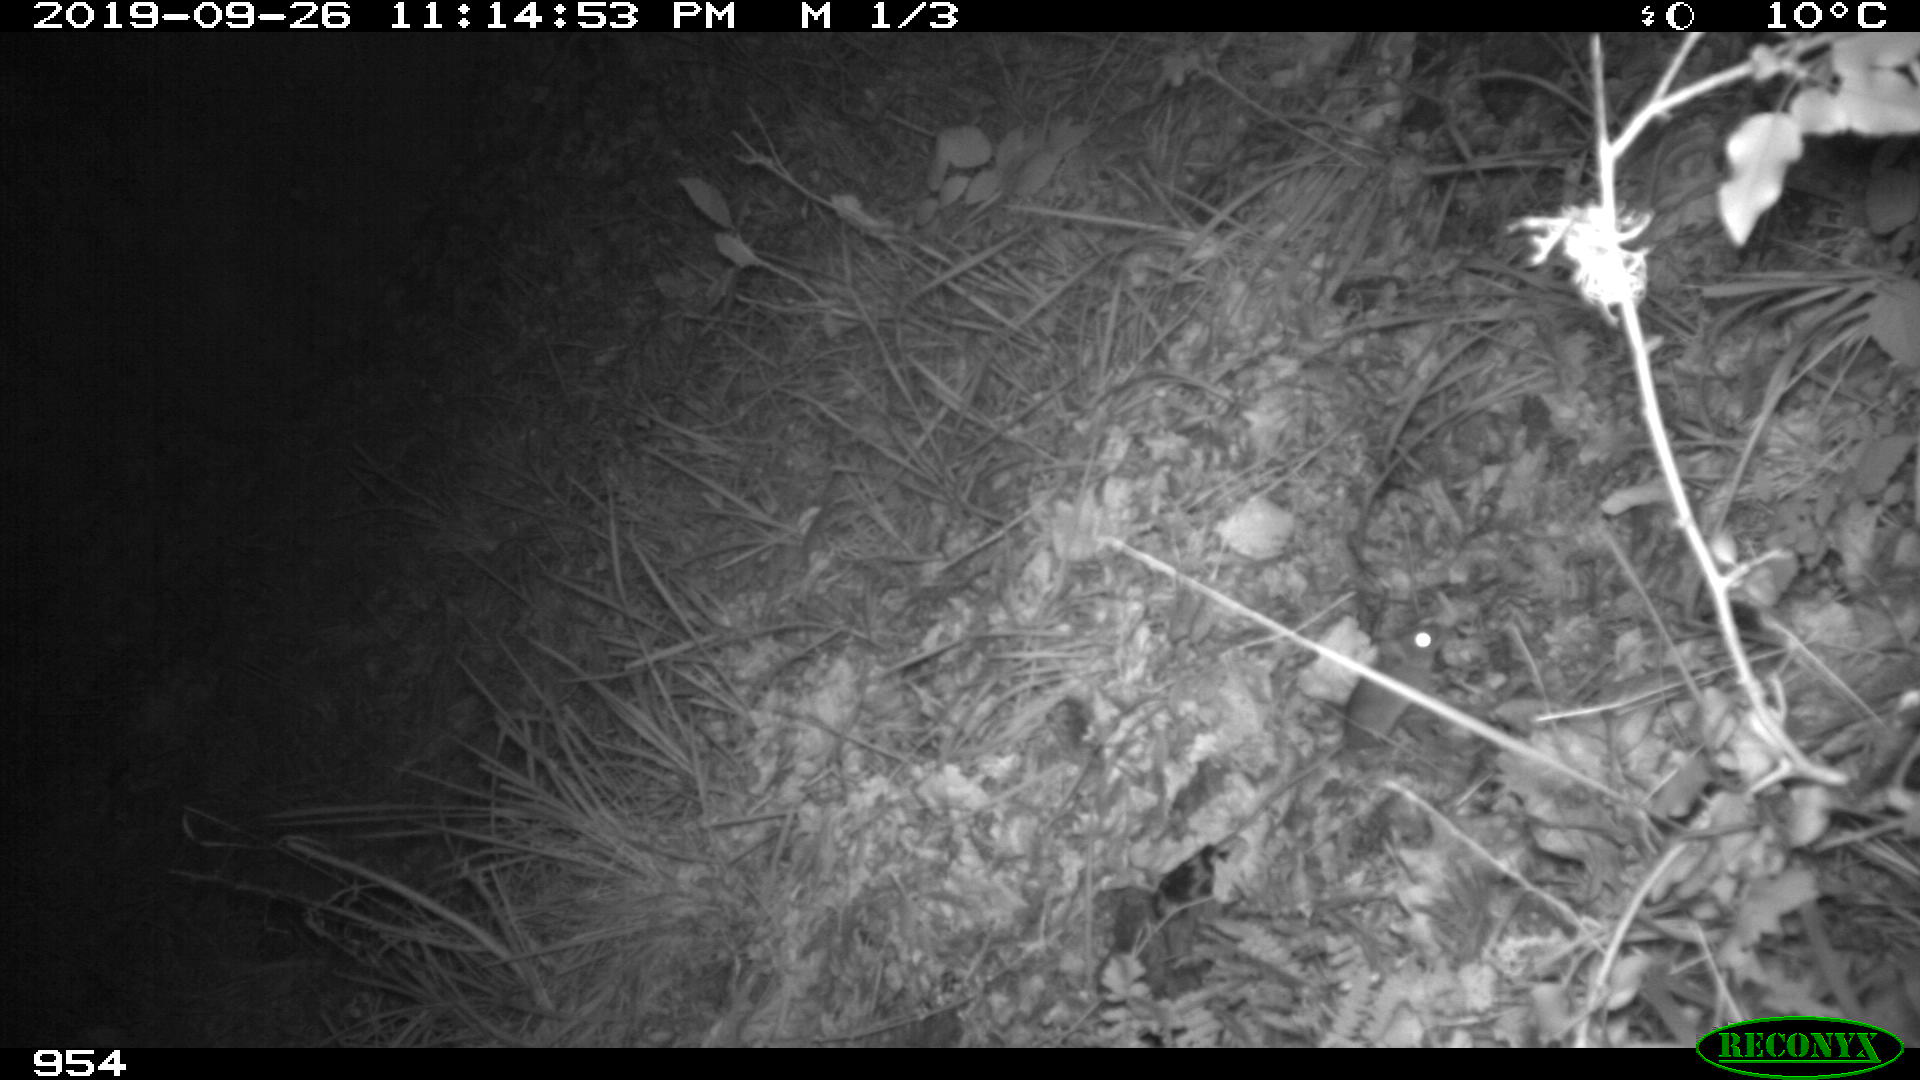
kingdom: Animalia
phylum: Chordata
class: Mammalia
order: Rodentia
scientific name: Rodentia
